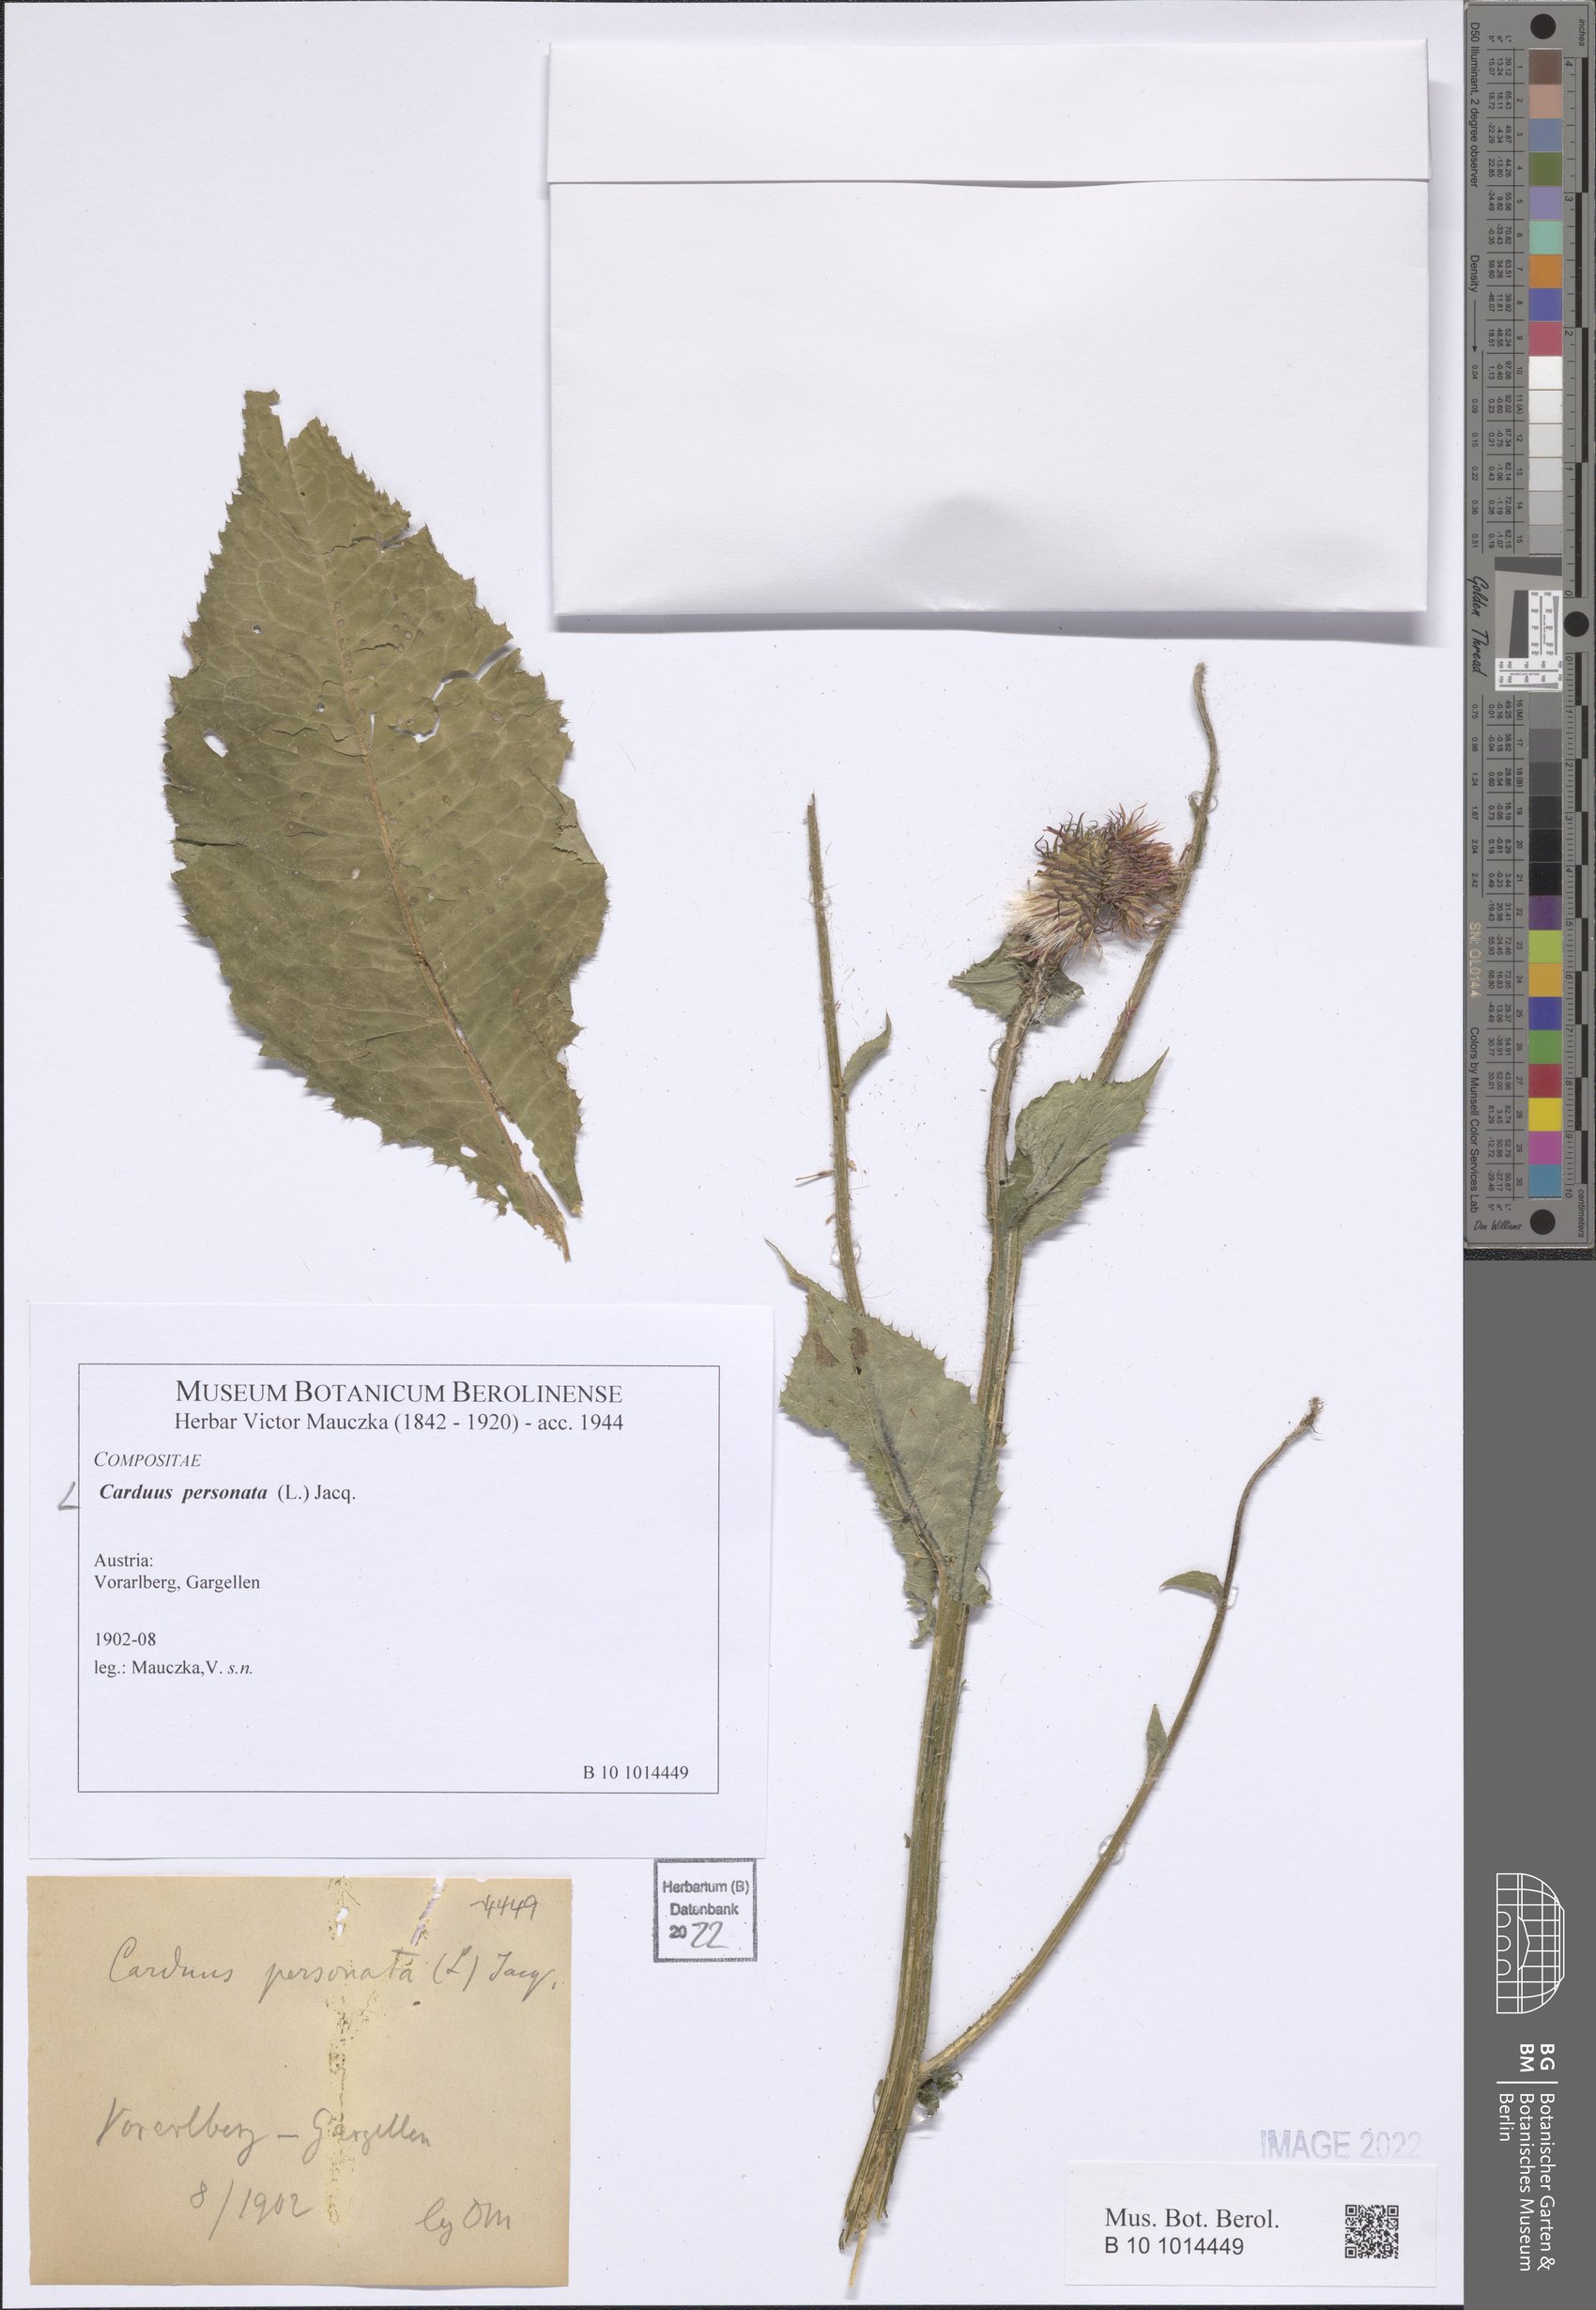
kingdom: Plantae
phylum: Tracheophyta
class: Magnoliopsida
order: Asterales
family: Asteraceae
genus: Carduus
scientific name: Carduus personata
